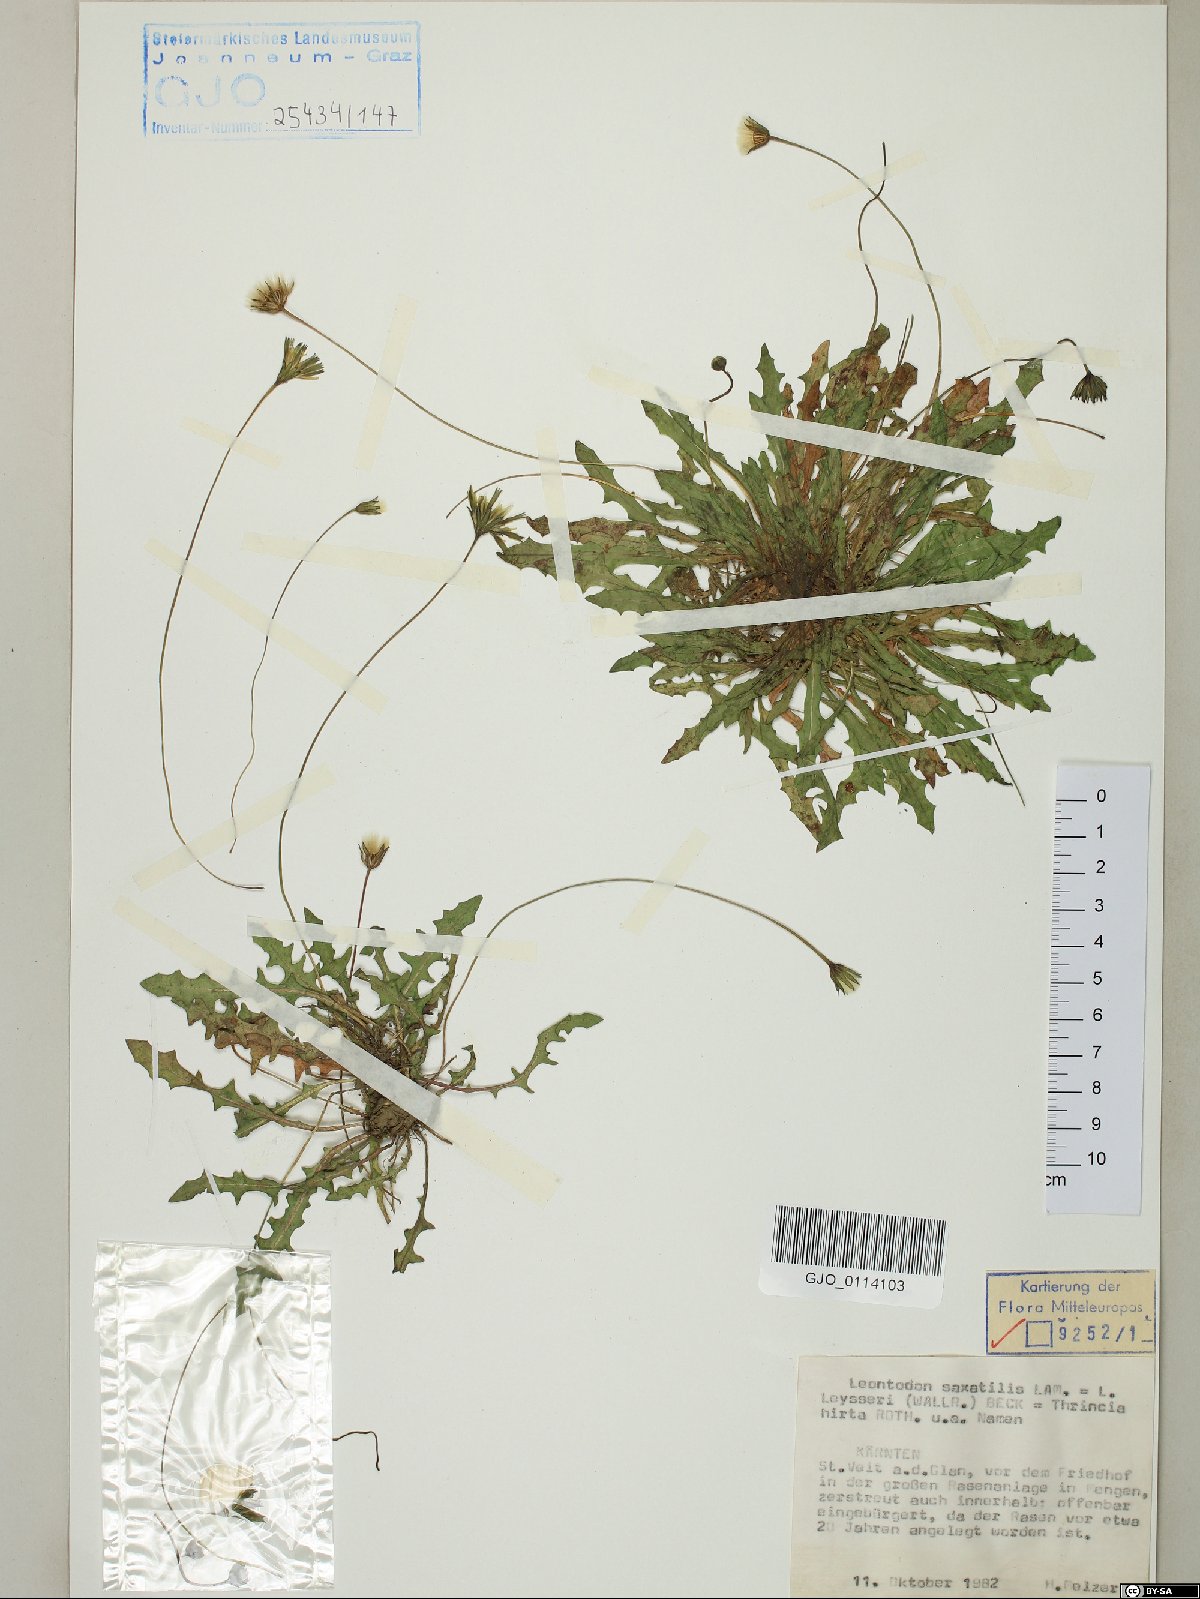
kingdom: Plantae
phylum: Tracheophyta
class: Magnoliopsida
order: Asterales
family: Asteraceae
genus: Thrincia
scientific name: Thrincia saxatilis
